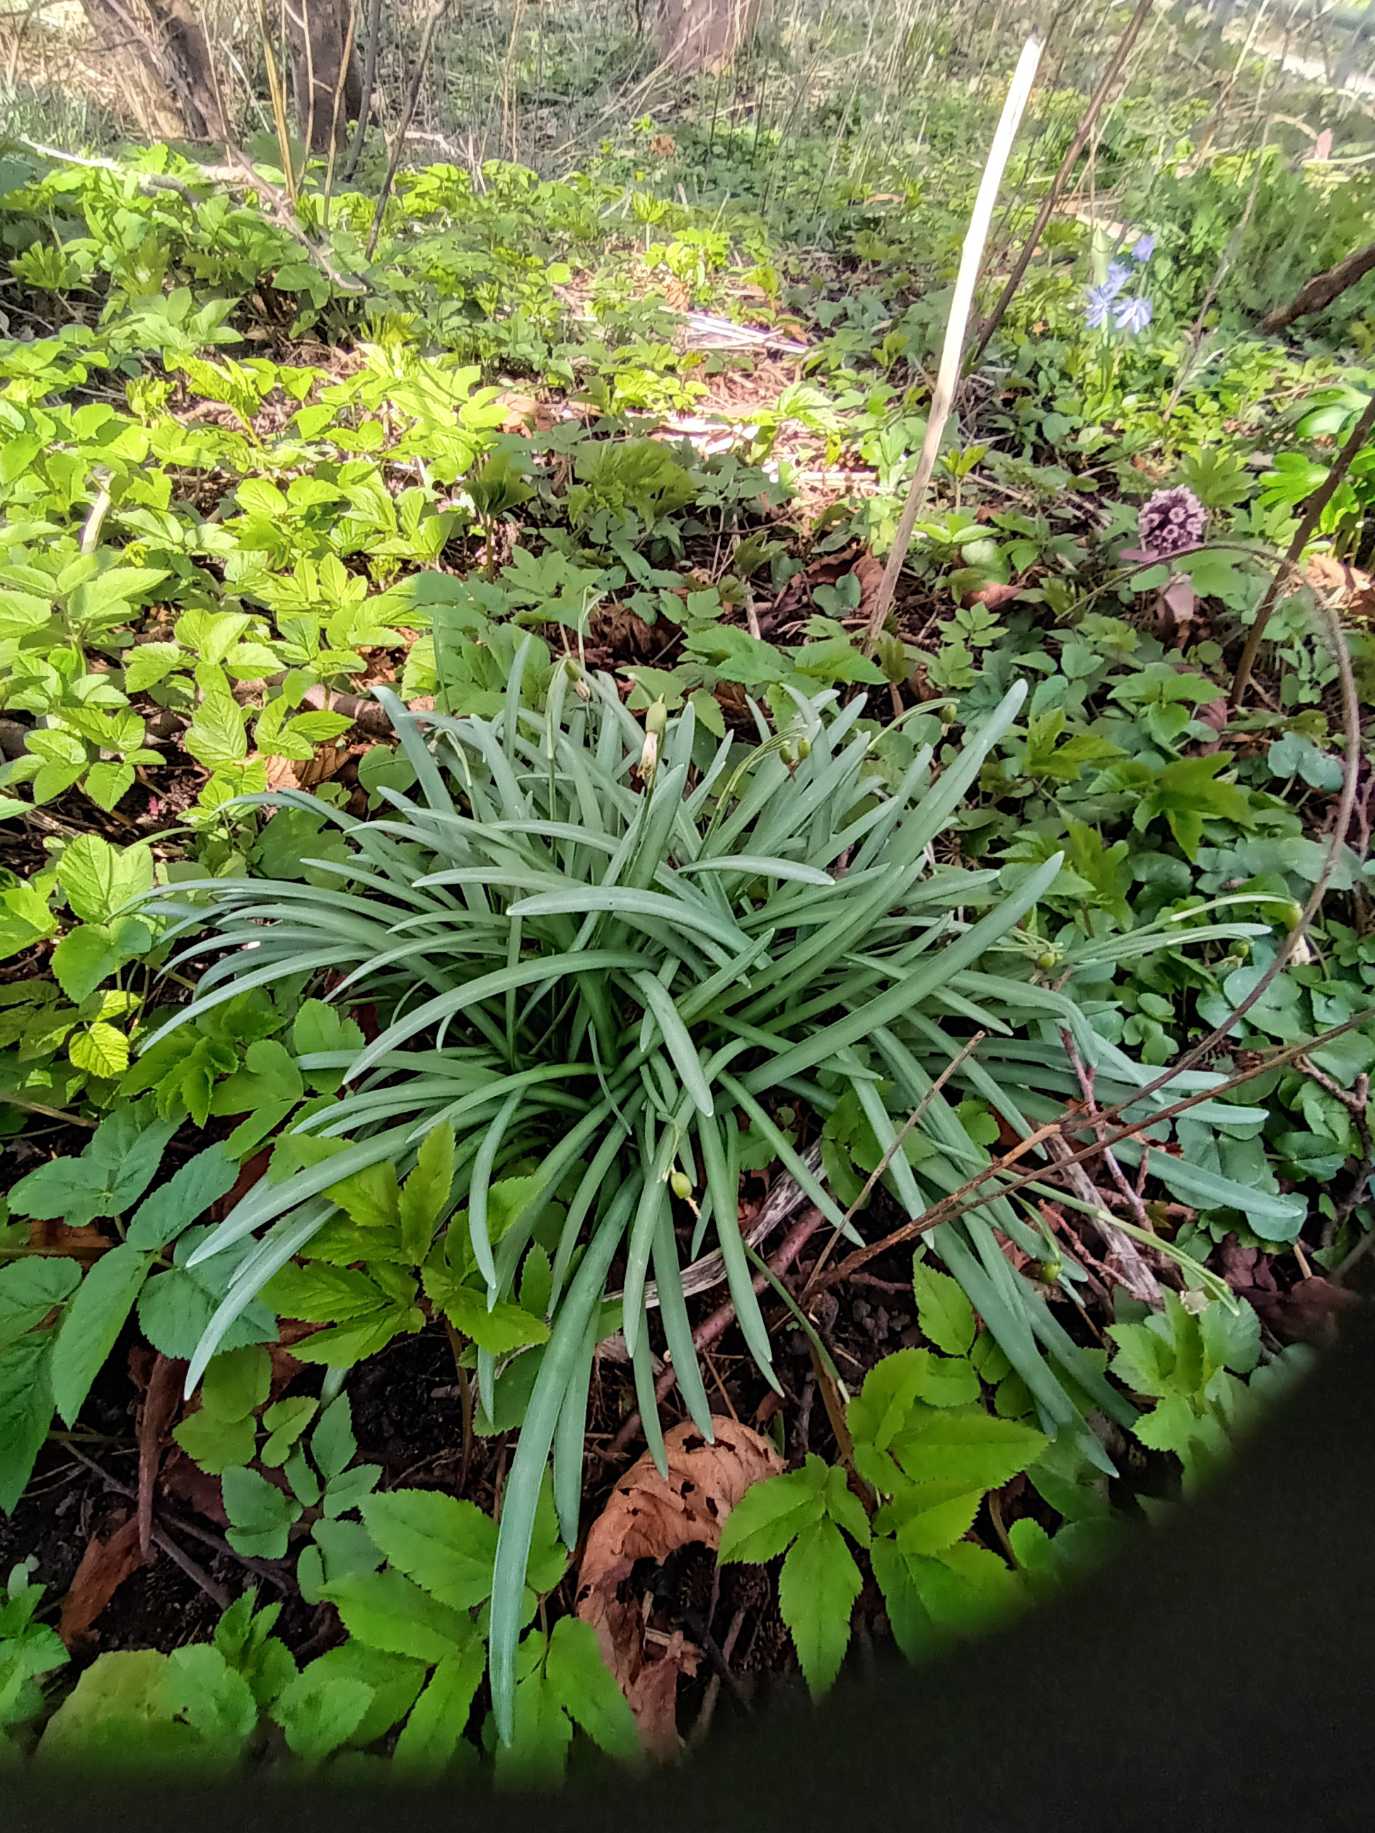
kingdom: Plantae
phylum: Tracheophyta
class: Liliopsida
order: Asparagales
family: Amaryllidaceae
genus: Galanthus
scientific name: Galanthus nivalis
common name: Vintergæk
